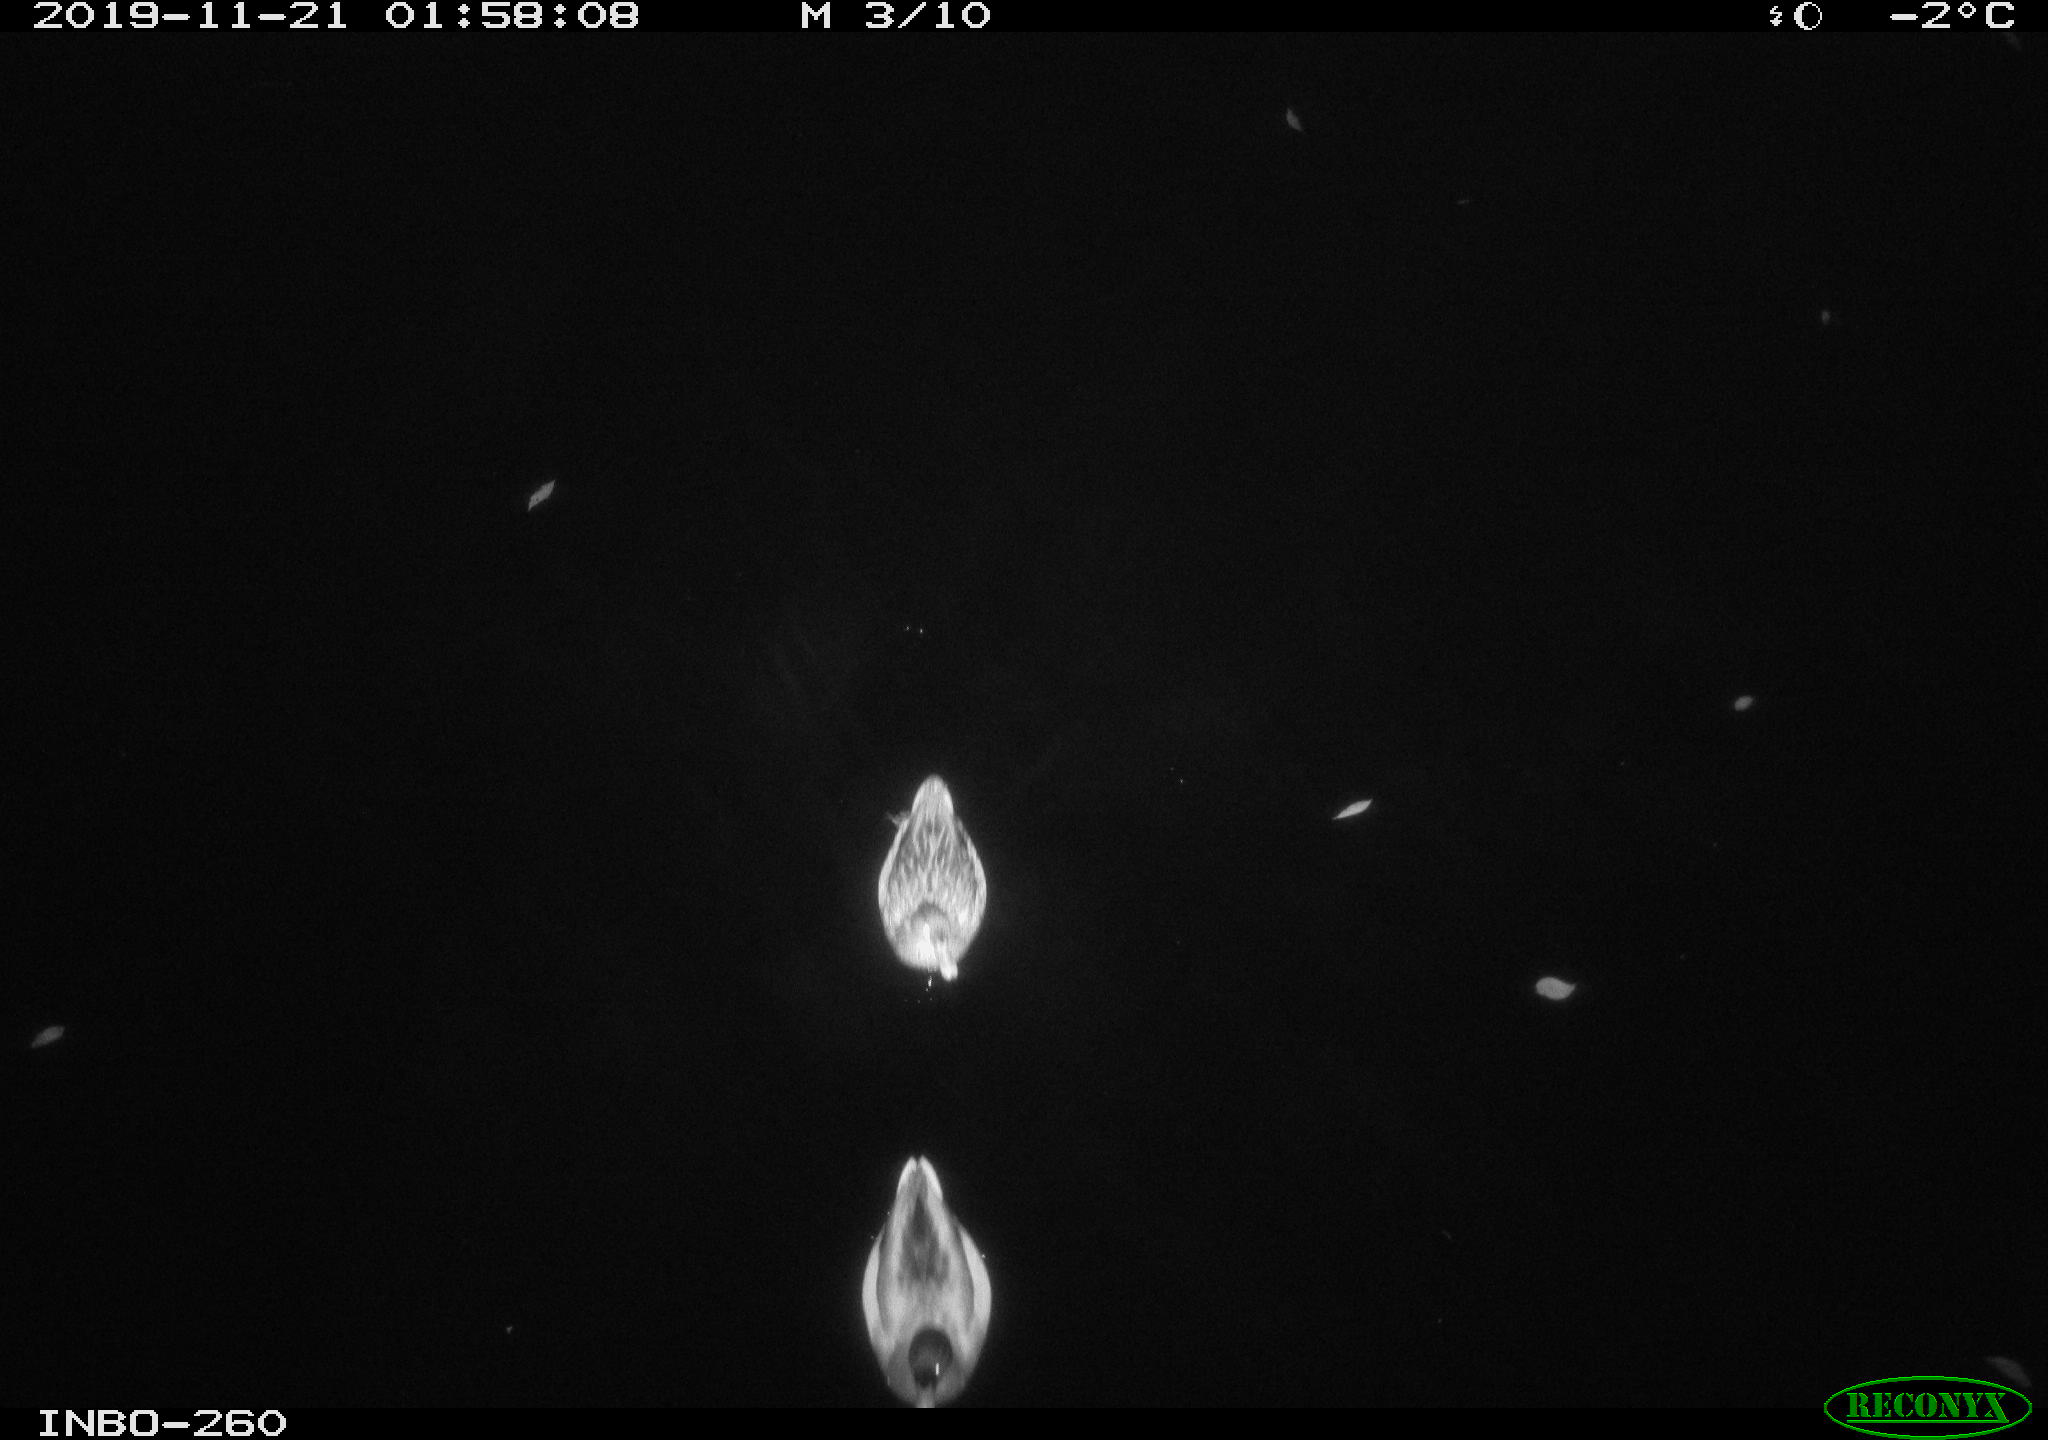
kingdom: Animalia
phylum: Chordata
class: Aves
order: Anseriformes
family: Anatidae
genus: Anas
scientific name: Anas platyrhynchos
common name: Mallard
